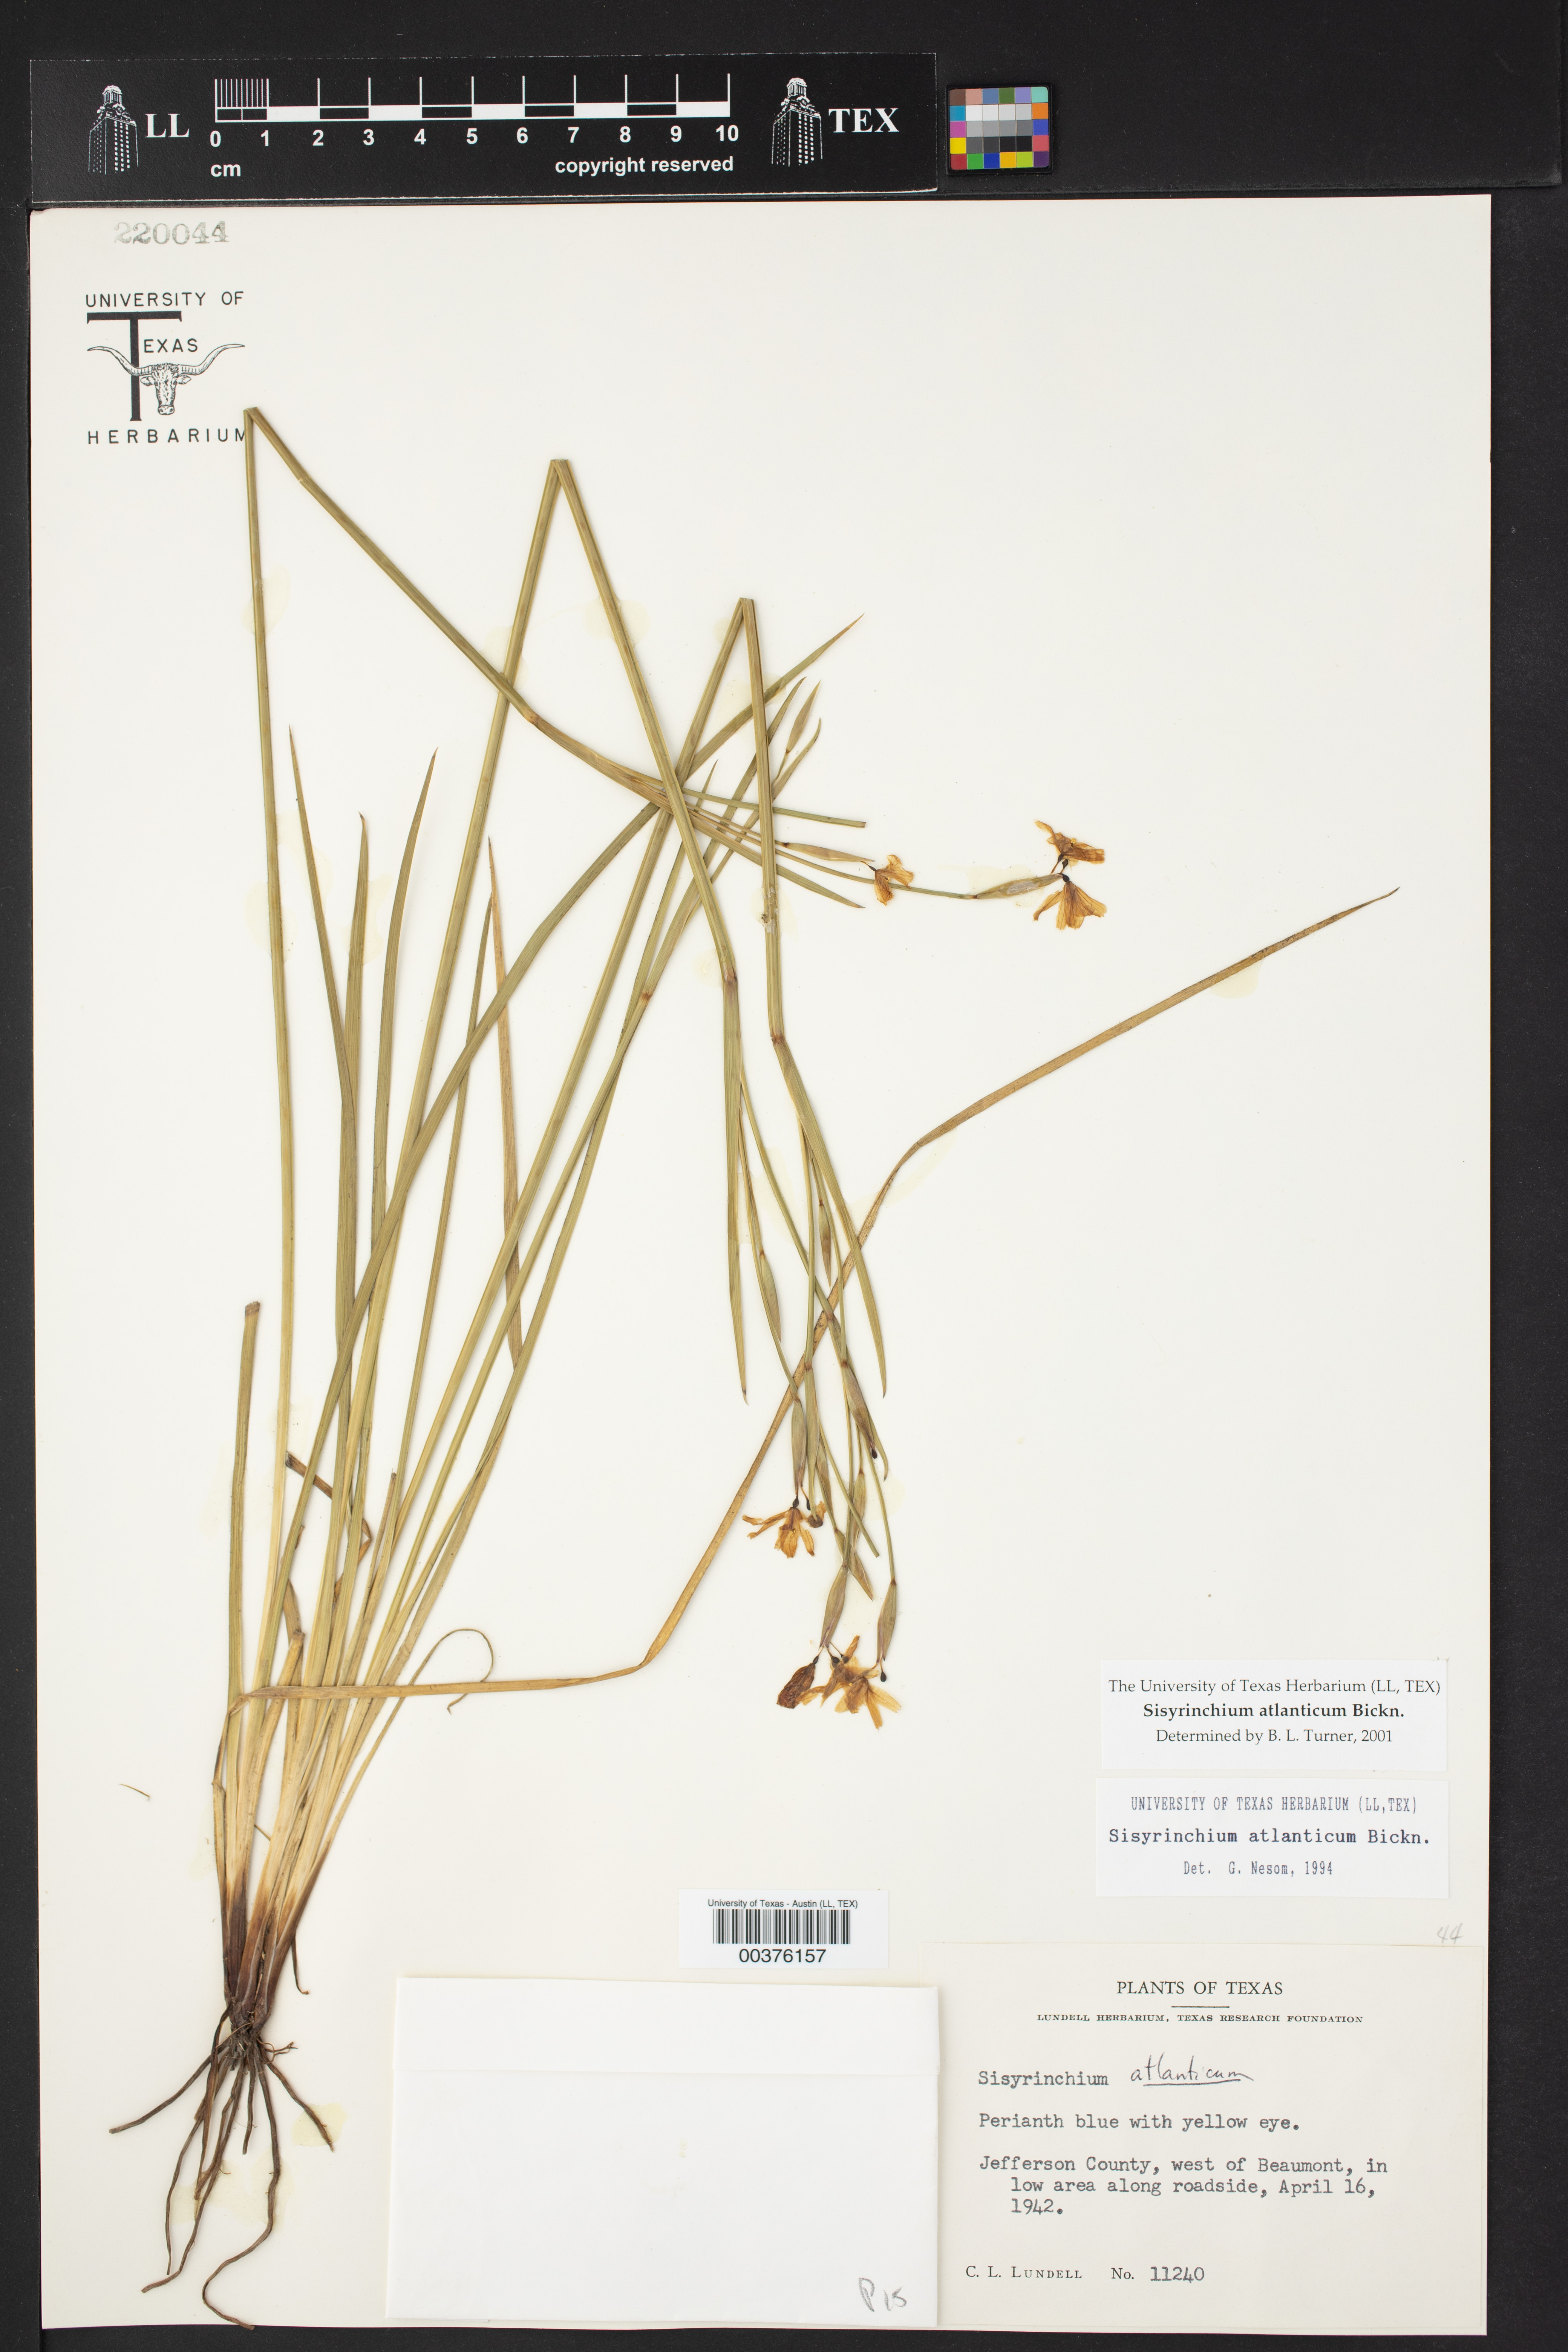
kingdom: Plantae
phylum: Tracheophyta
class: Liliopsida
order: Asparagales
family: Iridaceae
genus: Sisyrinchium
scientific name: Sisyrinchium atlanticum
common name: Eastern blue-eyed-grass
